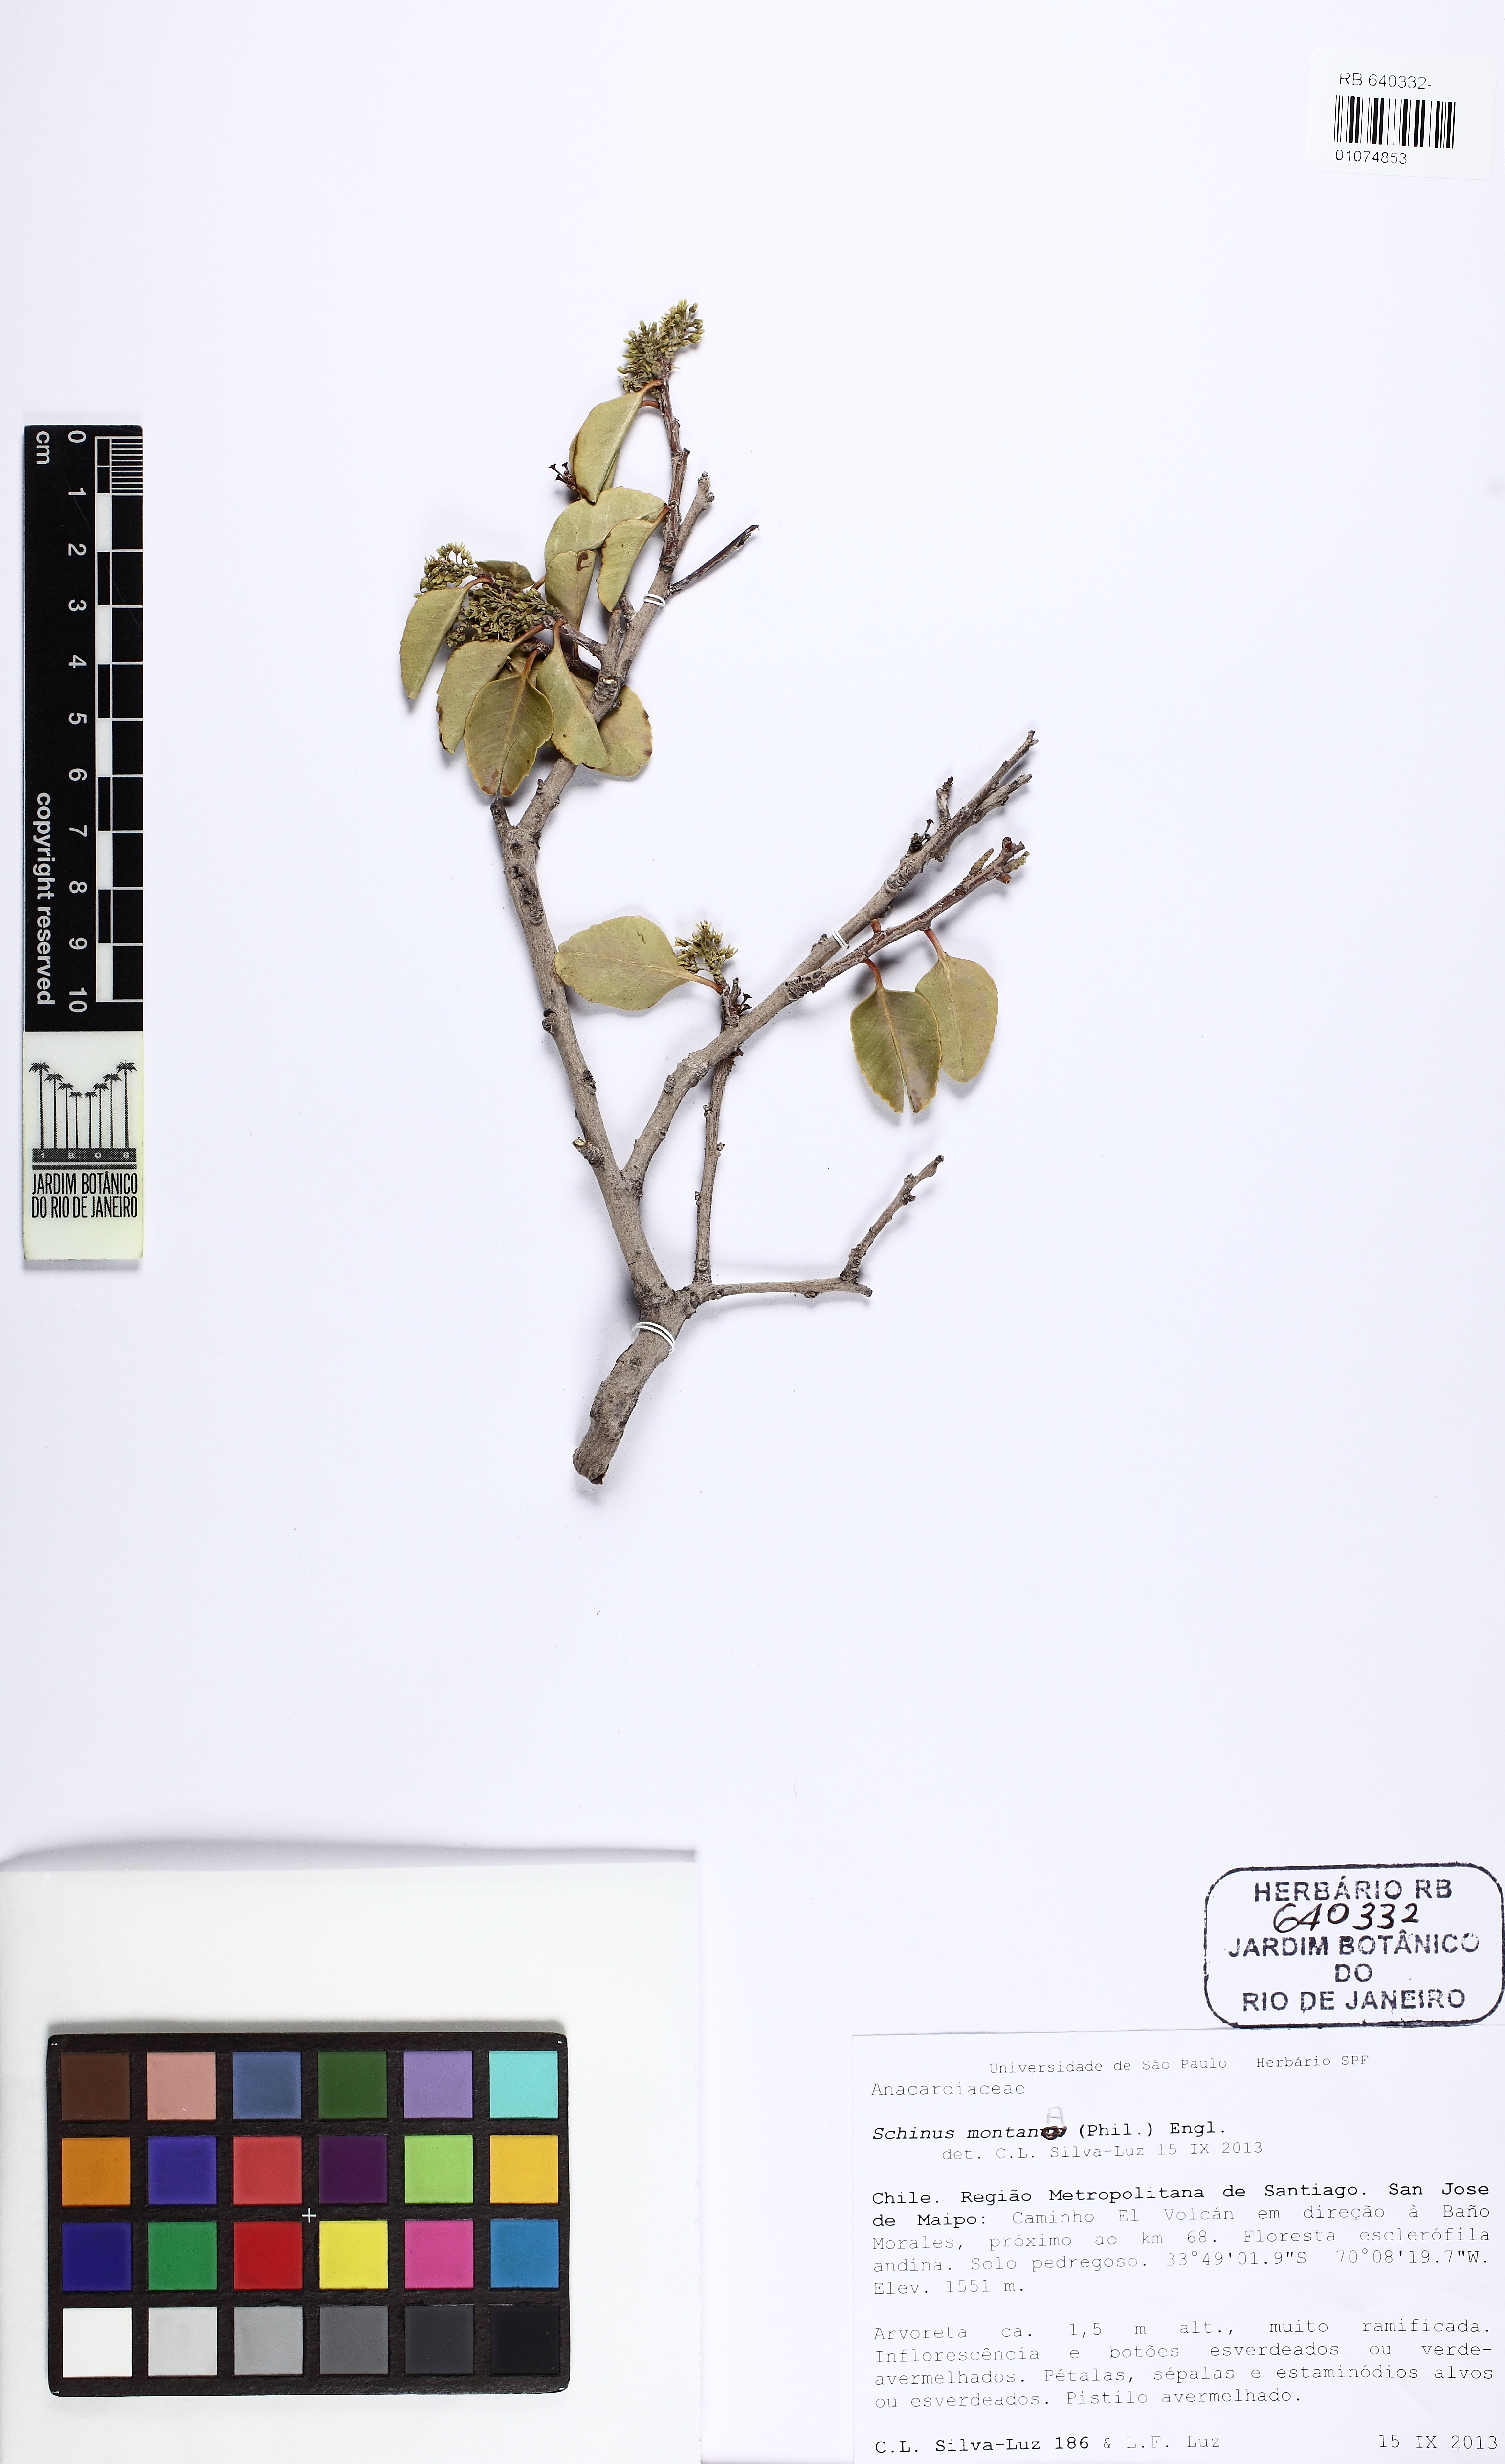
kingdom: Plantae
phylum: Tracheophyta
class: Magnoliopsida
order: Sapindales
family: Anacardiaceae
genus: Schinus
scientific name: Schinus montana
